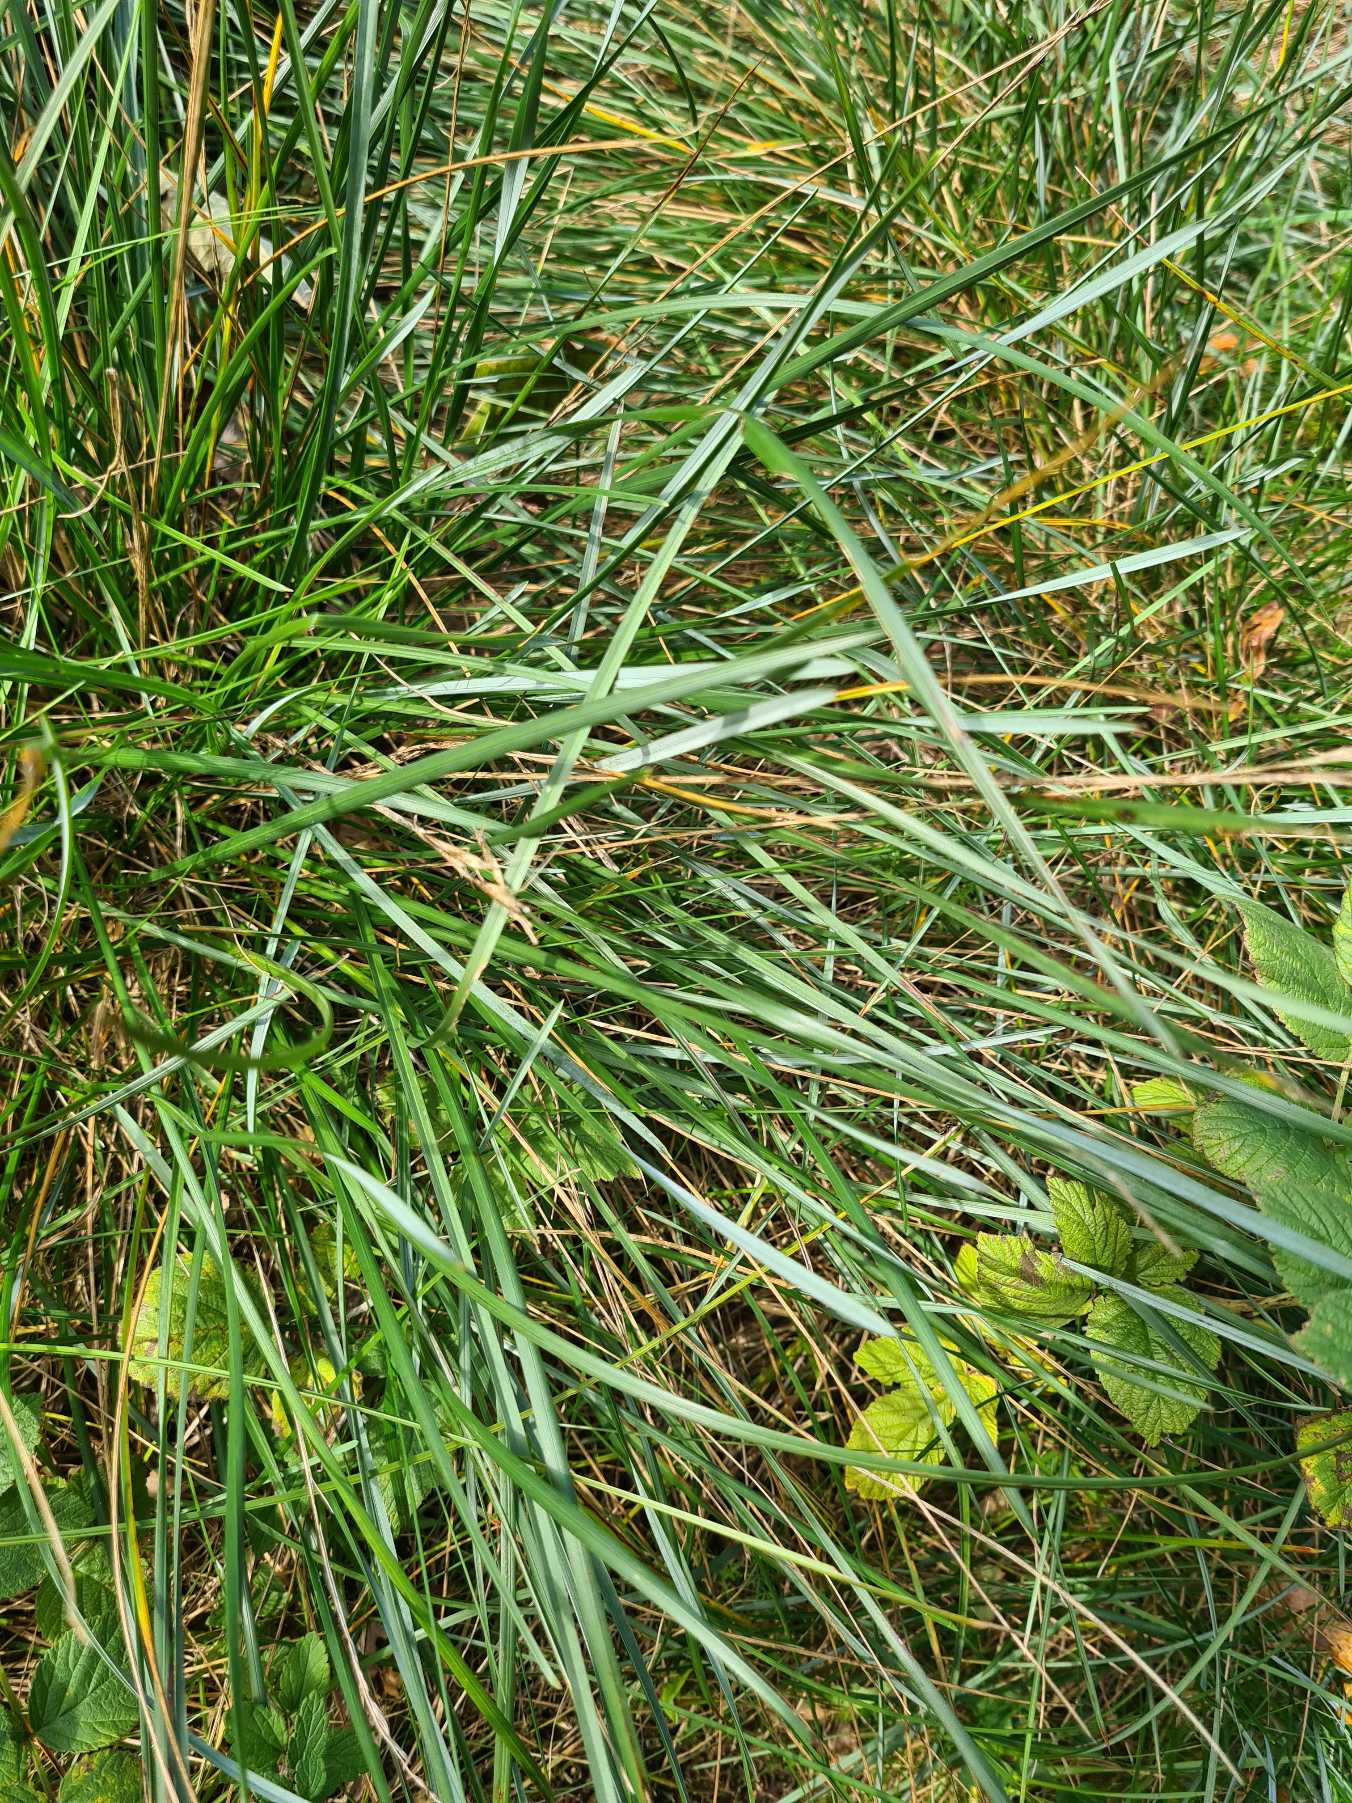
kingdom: Plantae
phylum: Tracheophyta
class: Liliopsida
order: Poales
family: Poaceae
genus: Helictochloa
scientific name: Helictochloa pratensis
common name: Eng-havre
